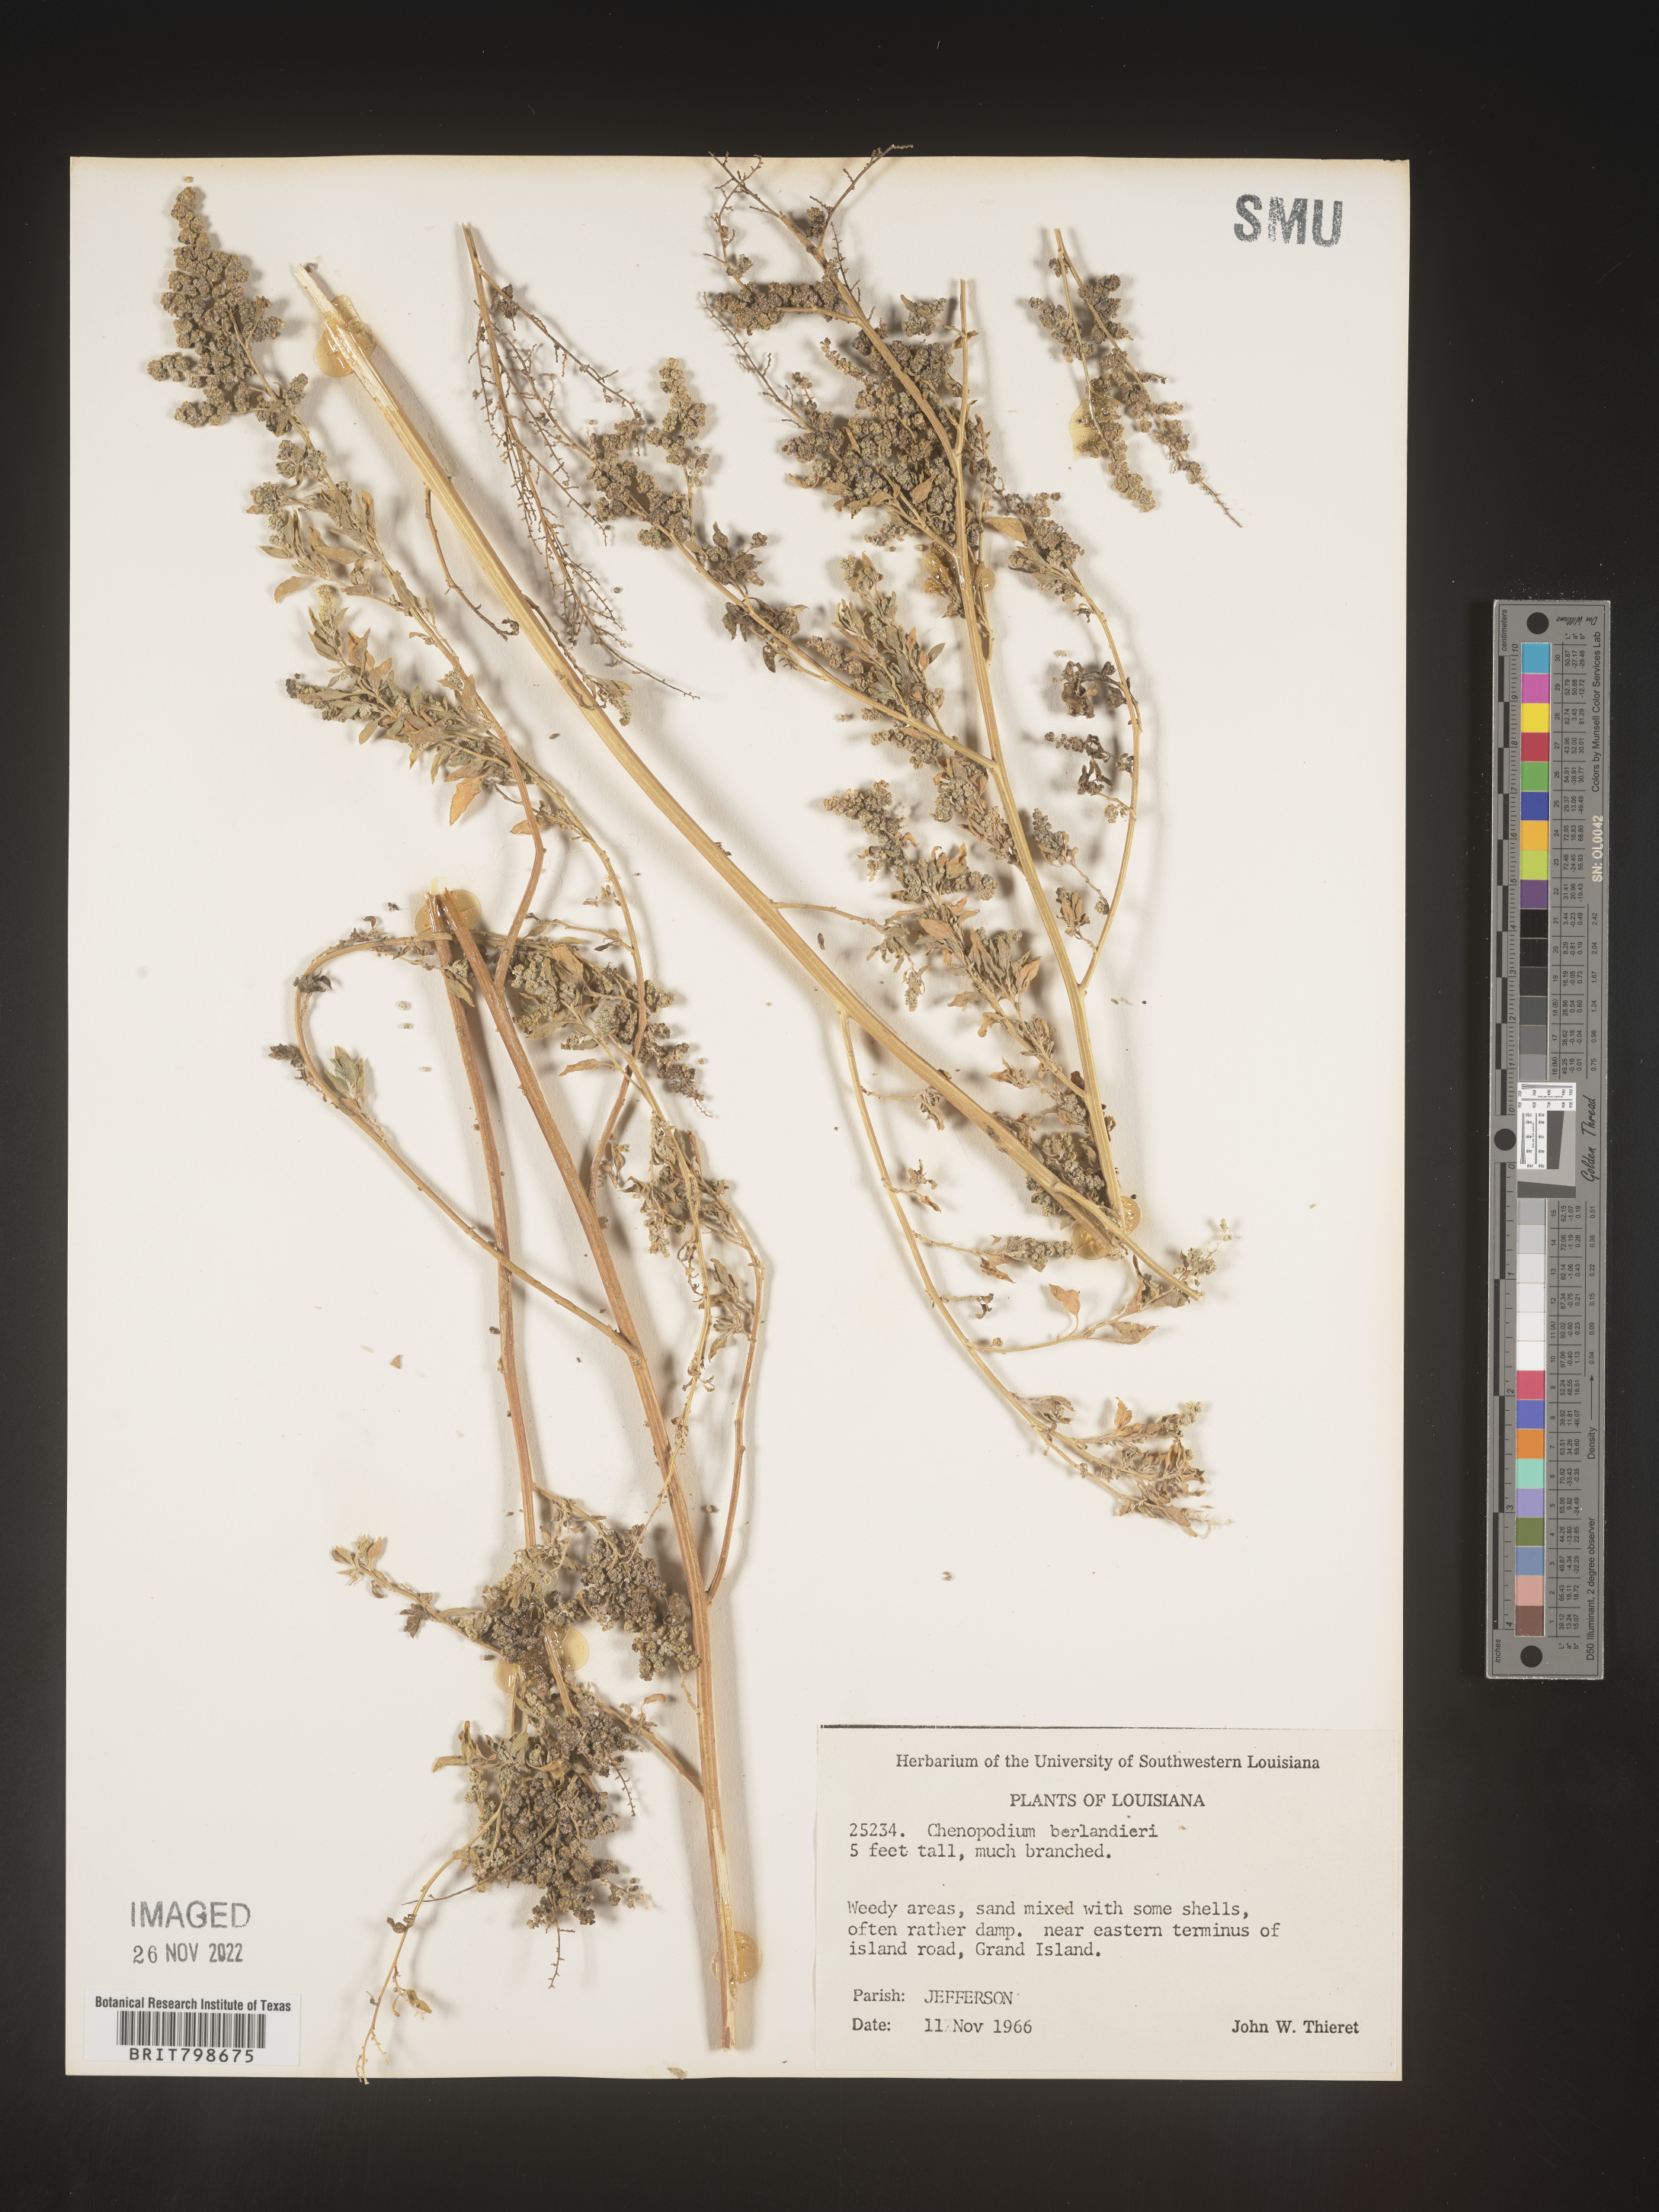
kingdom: Plantae
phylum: Tracheophyta
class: Magnoliopsida
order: Caryophyllales
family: Amaranthaceae
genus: Chenopodium
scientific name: Chenopodium berlandieri
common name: Pit-seed goosefoot
